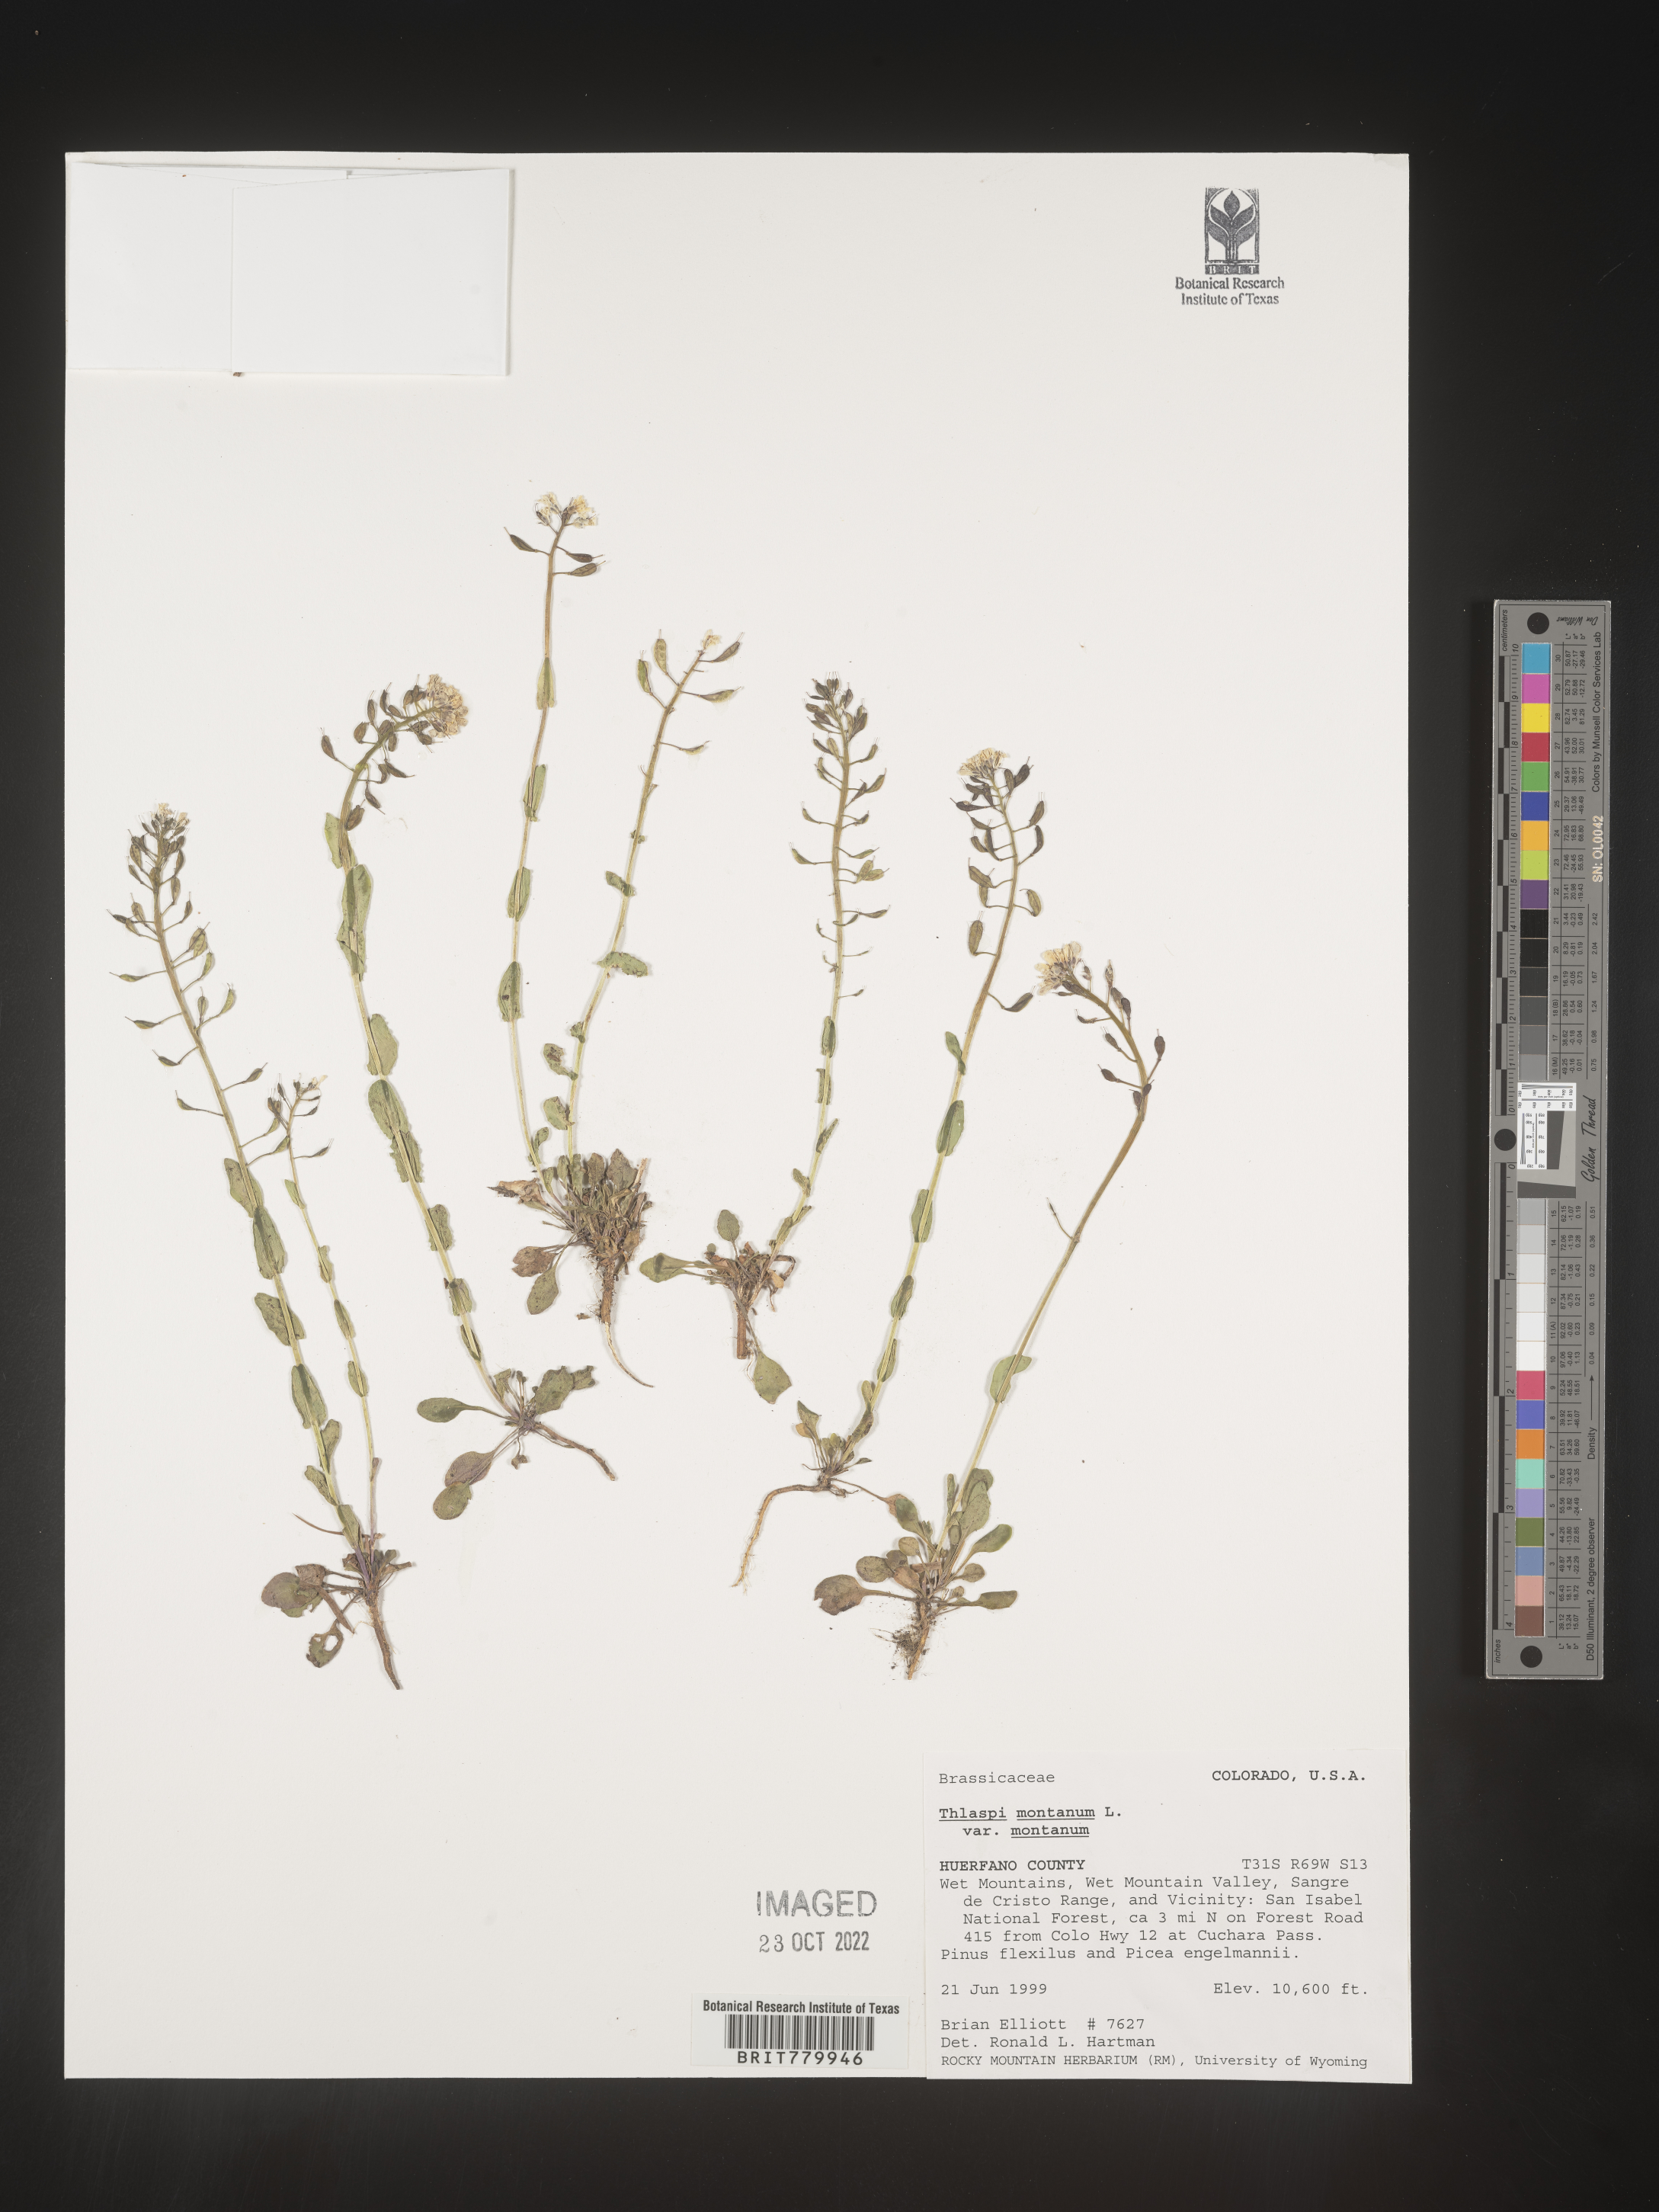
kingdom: Plantae
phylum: Tracheophyta
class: Magnoliopsida
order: Brassicales
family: Brassicaceae
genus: Thlaspi
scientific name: Thlaspi
